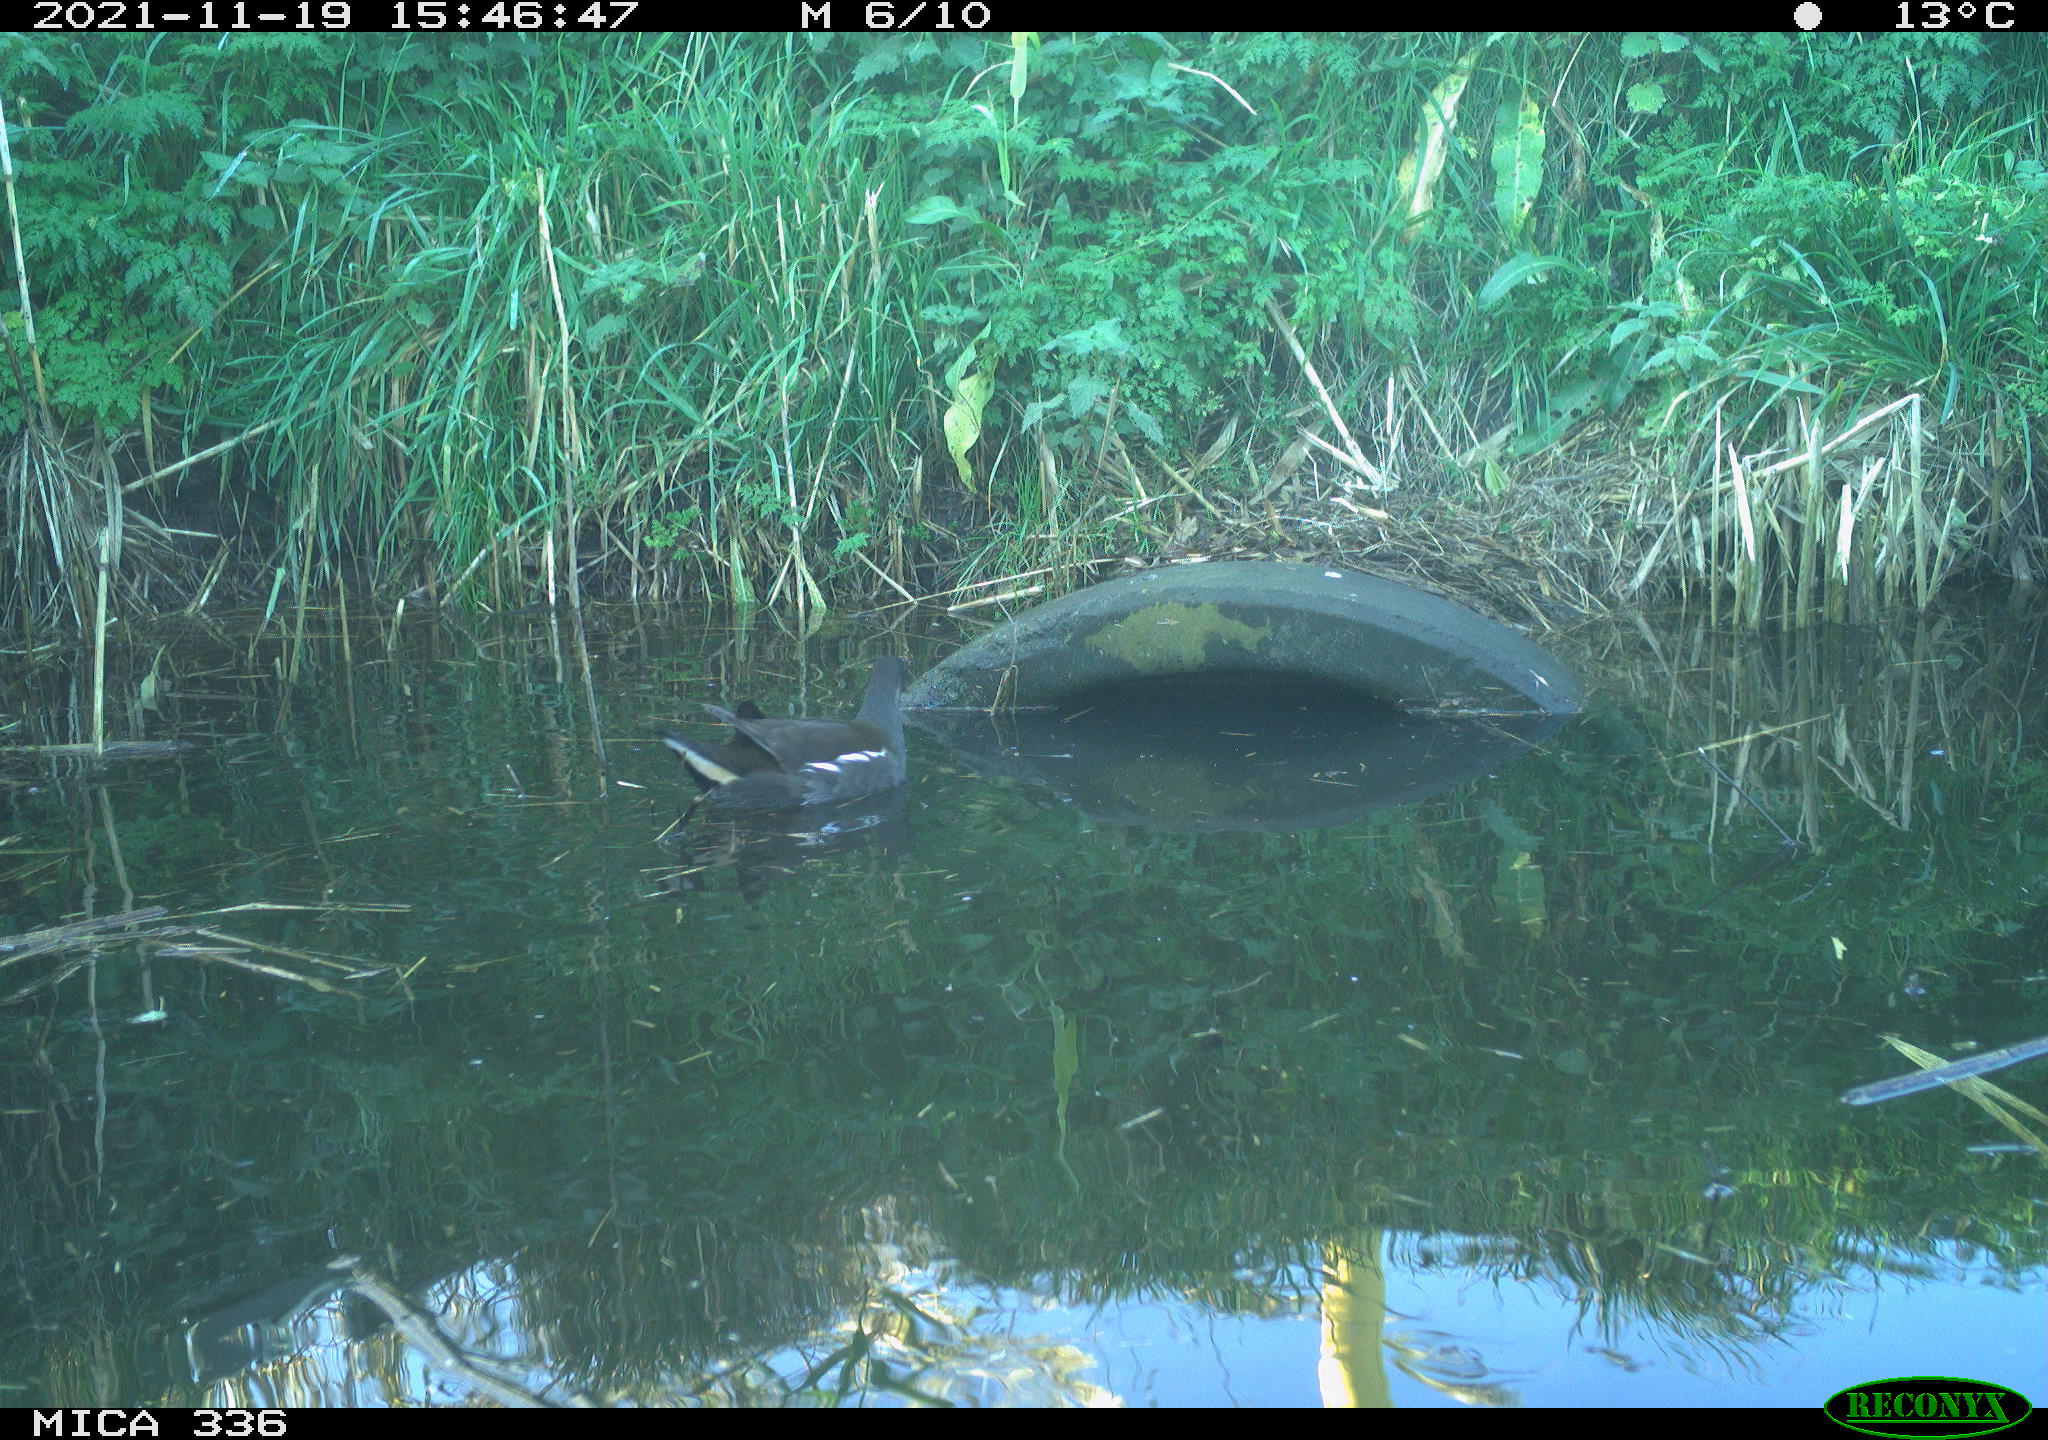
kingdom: Animalia
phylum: Chordata
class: Aves
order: Gruiformes
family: Rallidae
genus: Gallinula
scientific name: Gallinula chloropus
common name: Common moorhen
